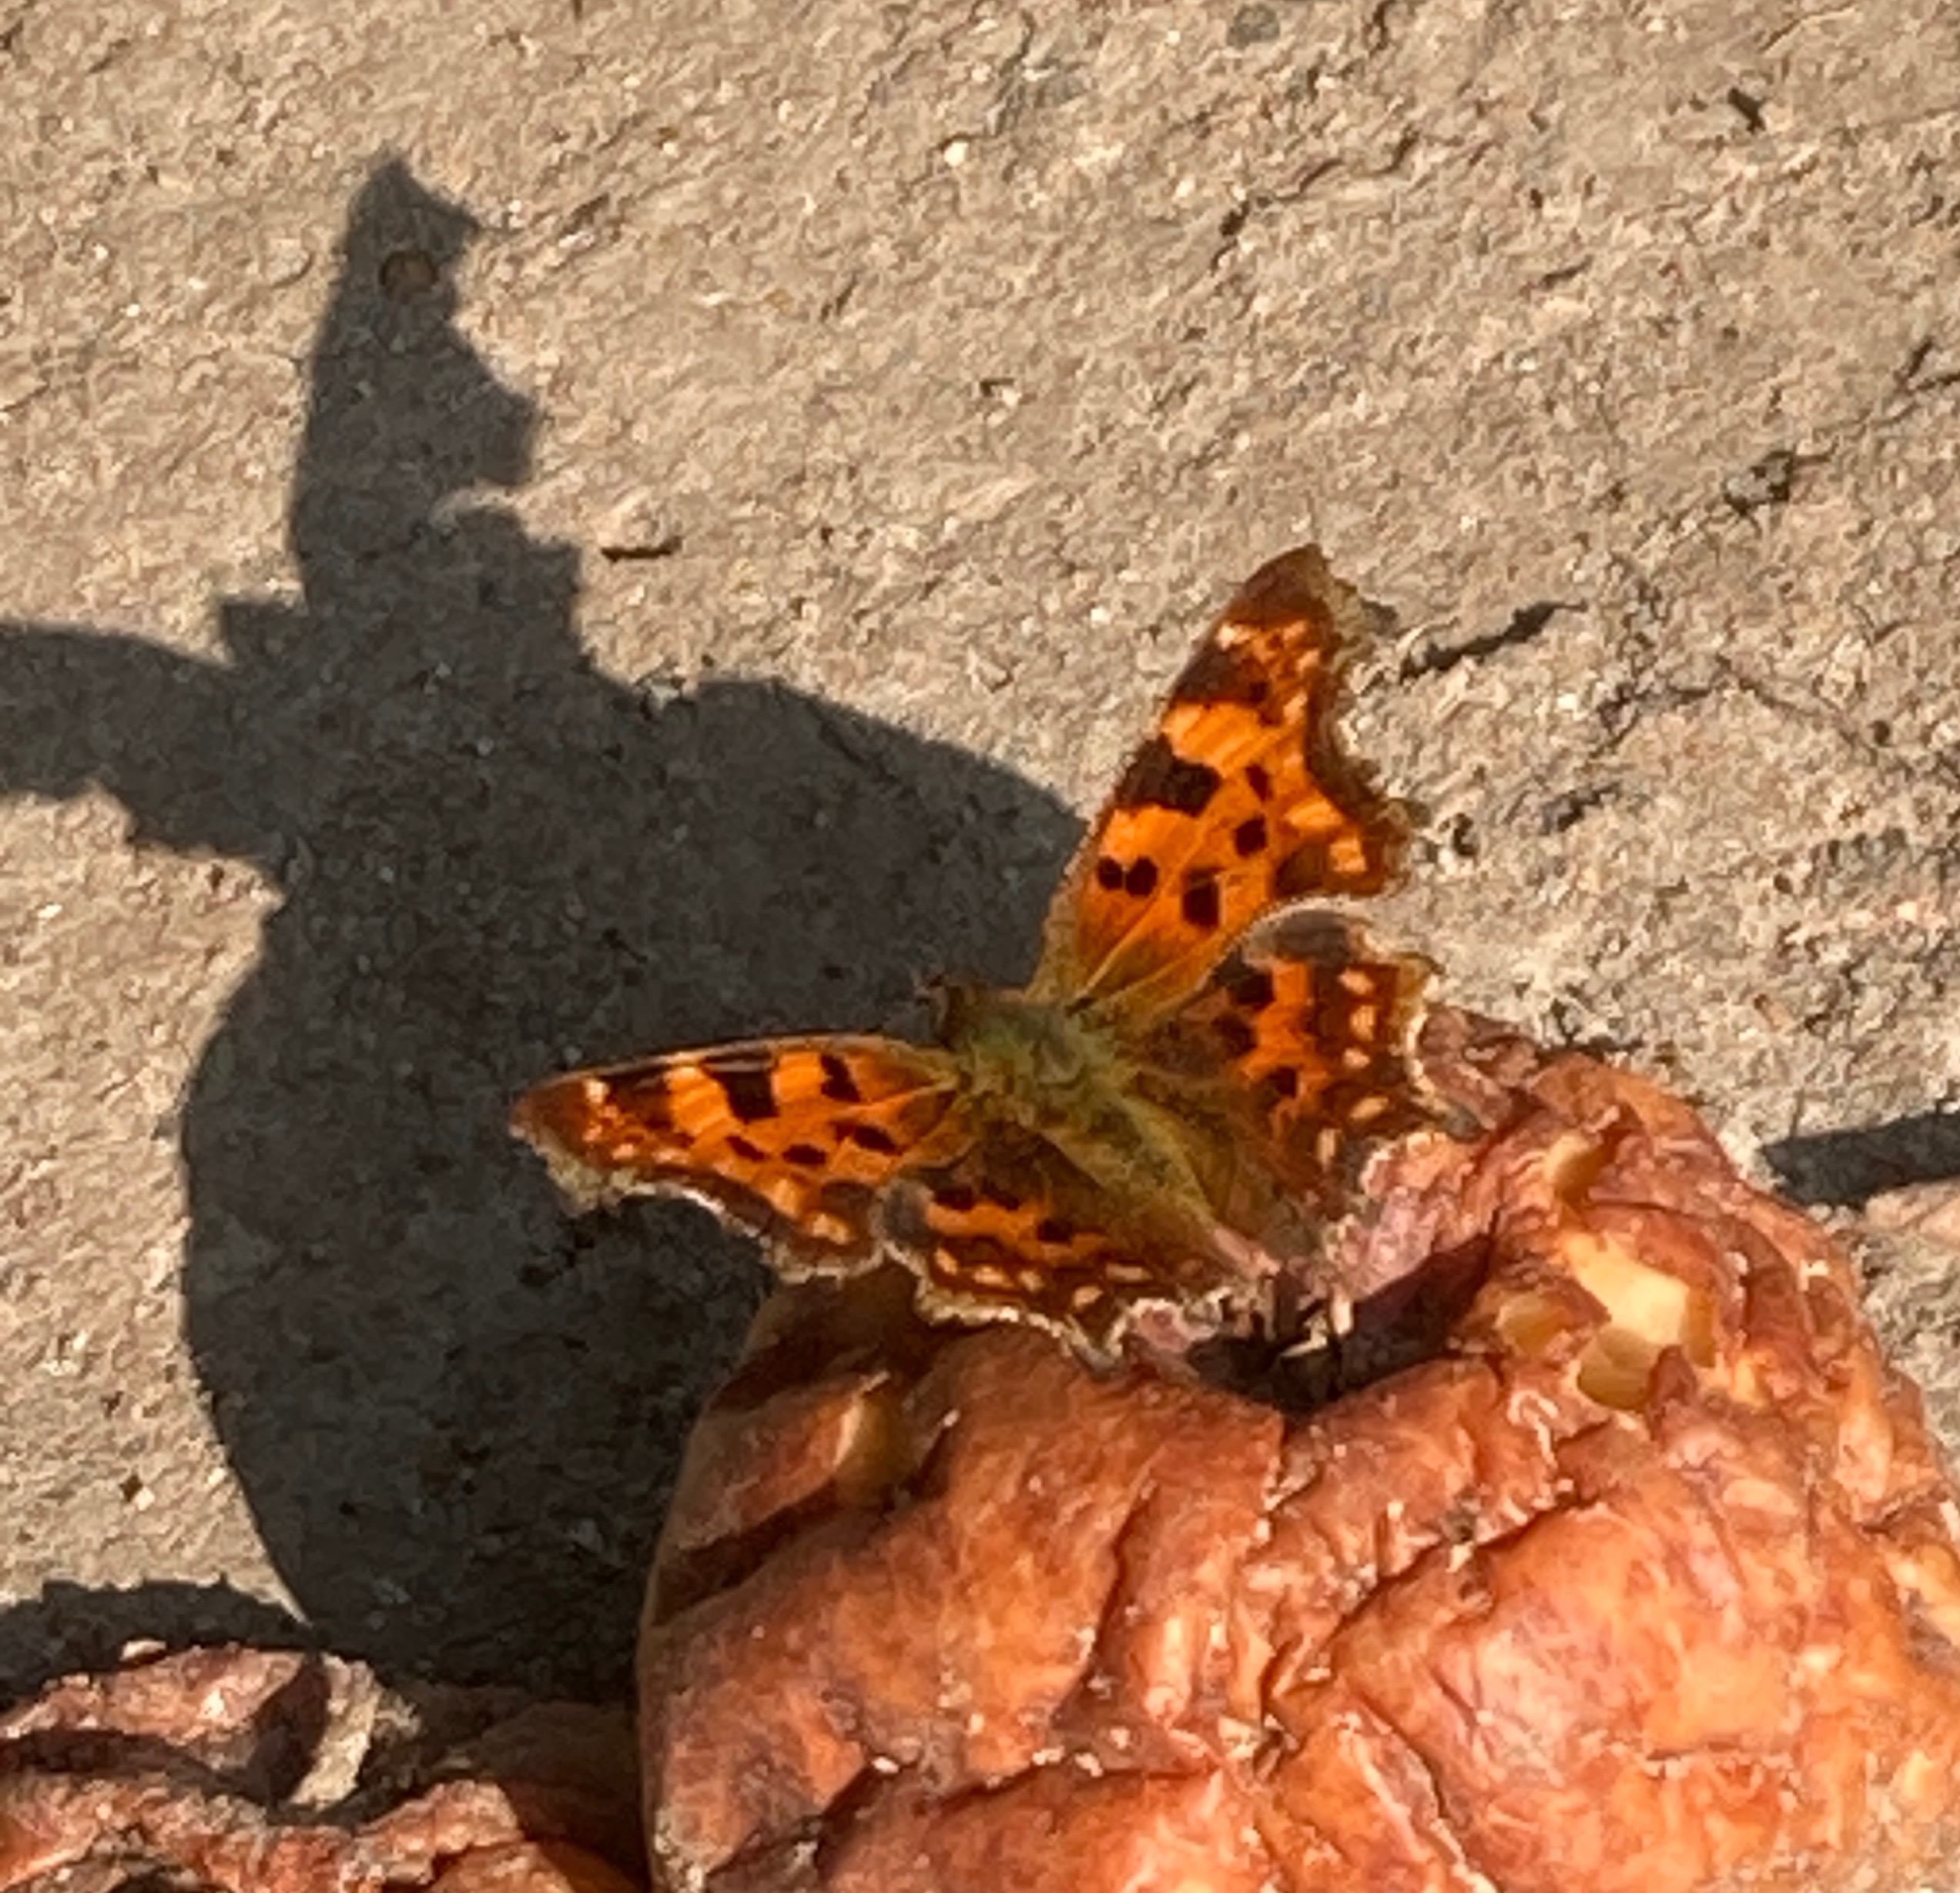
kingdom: Animalia
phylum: Arthropoda
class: Insecta
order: Lepidoptera
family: Nymphalidae
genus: Polygonia
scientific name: Polygonia c-album
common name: Det hvide C
